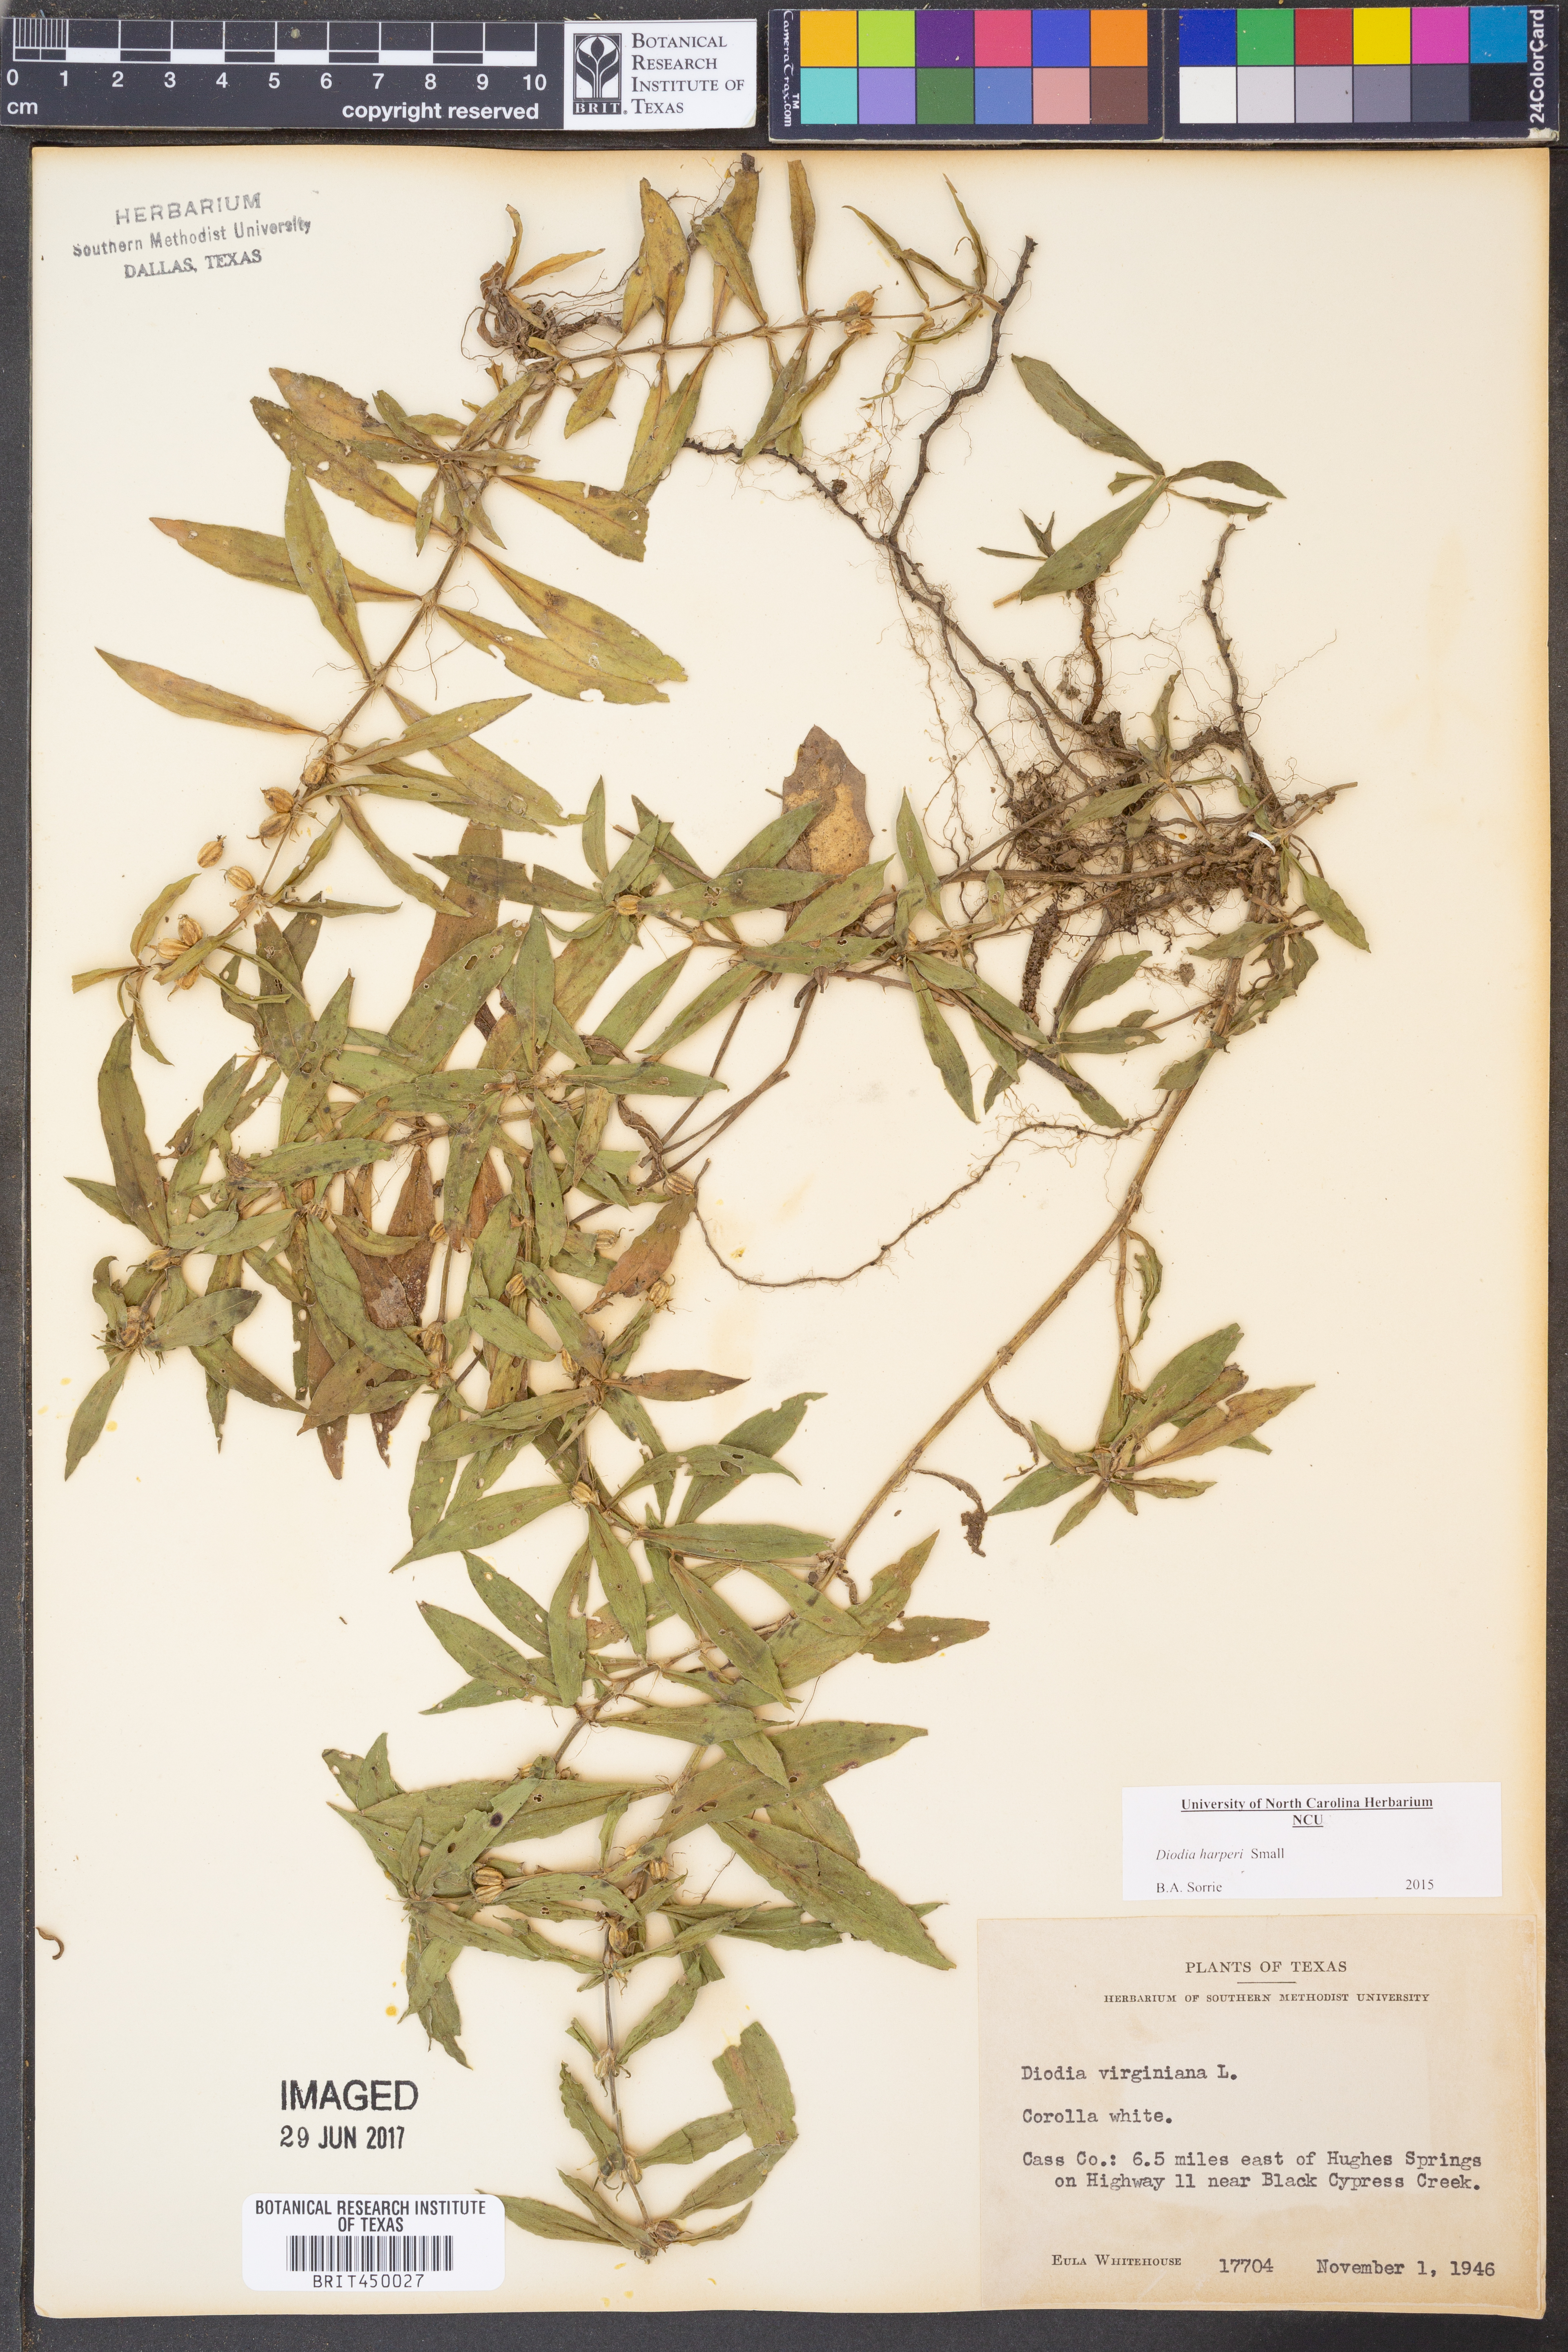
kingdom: Plantae
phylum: Tracheophyta
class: Magnoliopsida
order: Gentianales
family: Rubiaceae
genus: Diodia
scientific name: Diodia virginiana
